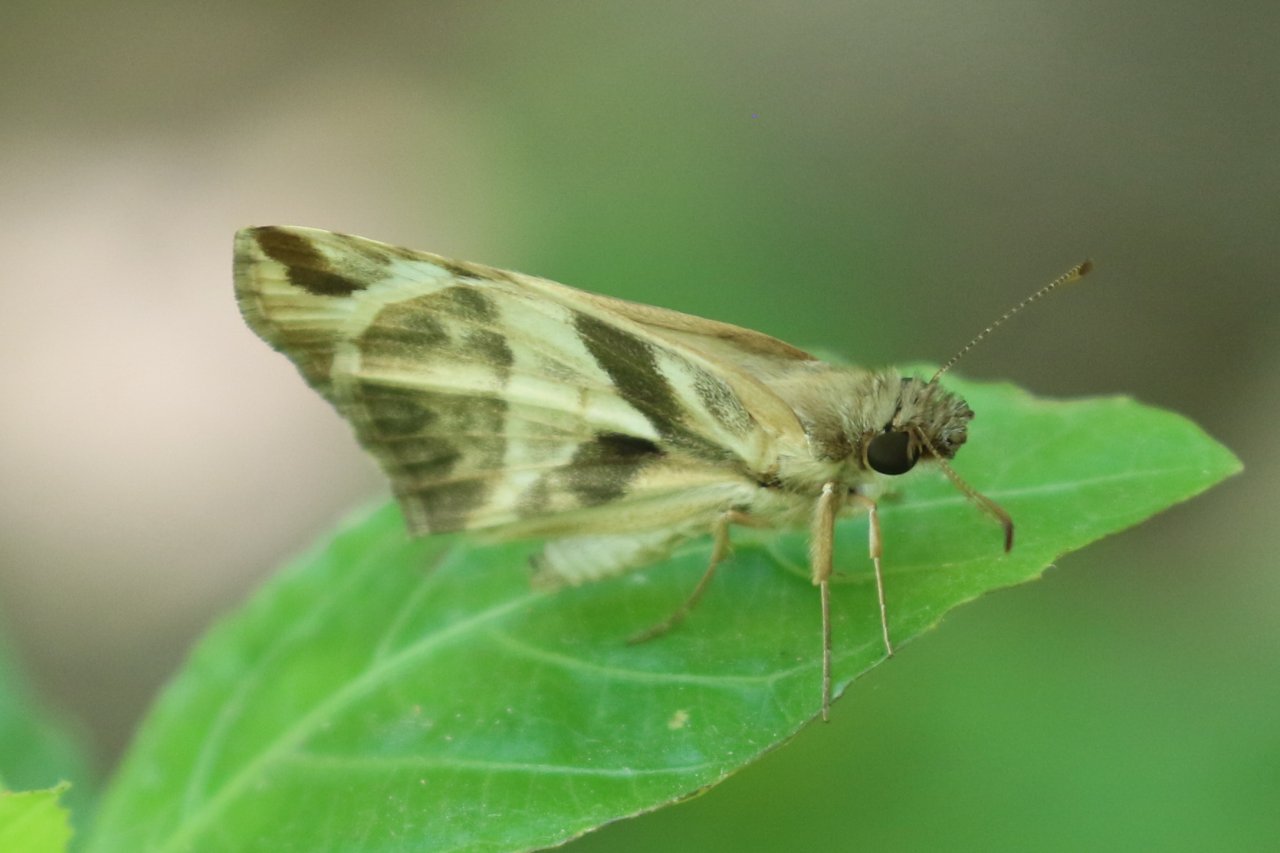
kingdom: Animalia
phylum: Arthropoda
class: Insecta
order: Lepidoptera
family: Hesperiidae
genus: Heliopetes
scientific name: Heliopetes laviana
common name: Laviana White-Skipper
